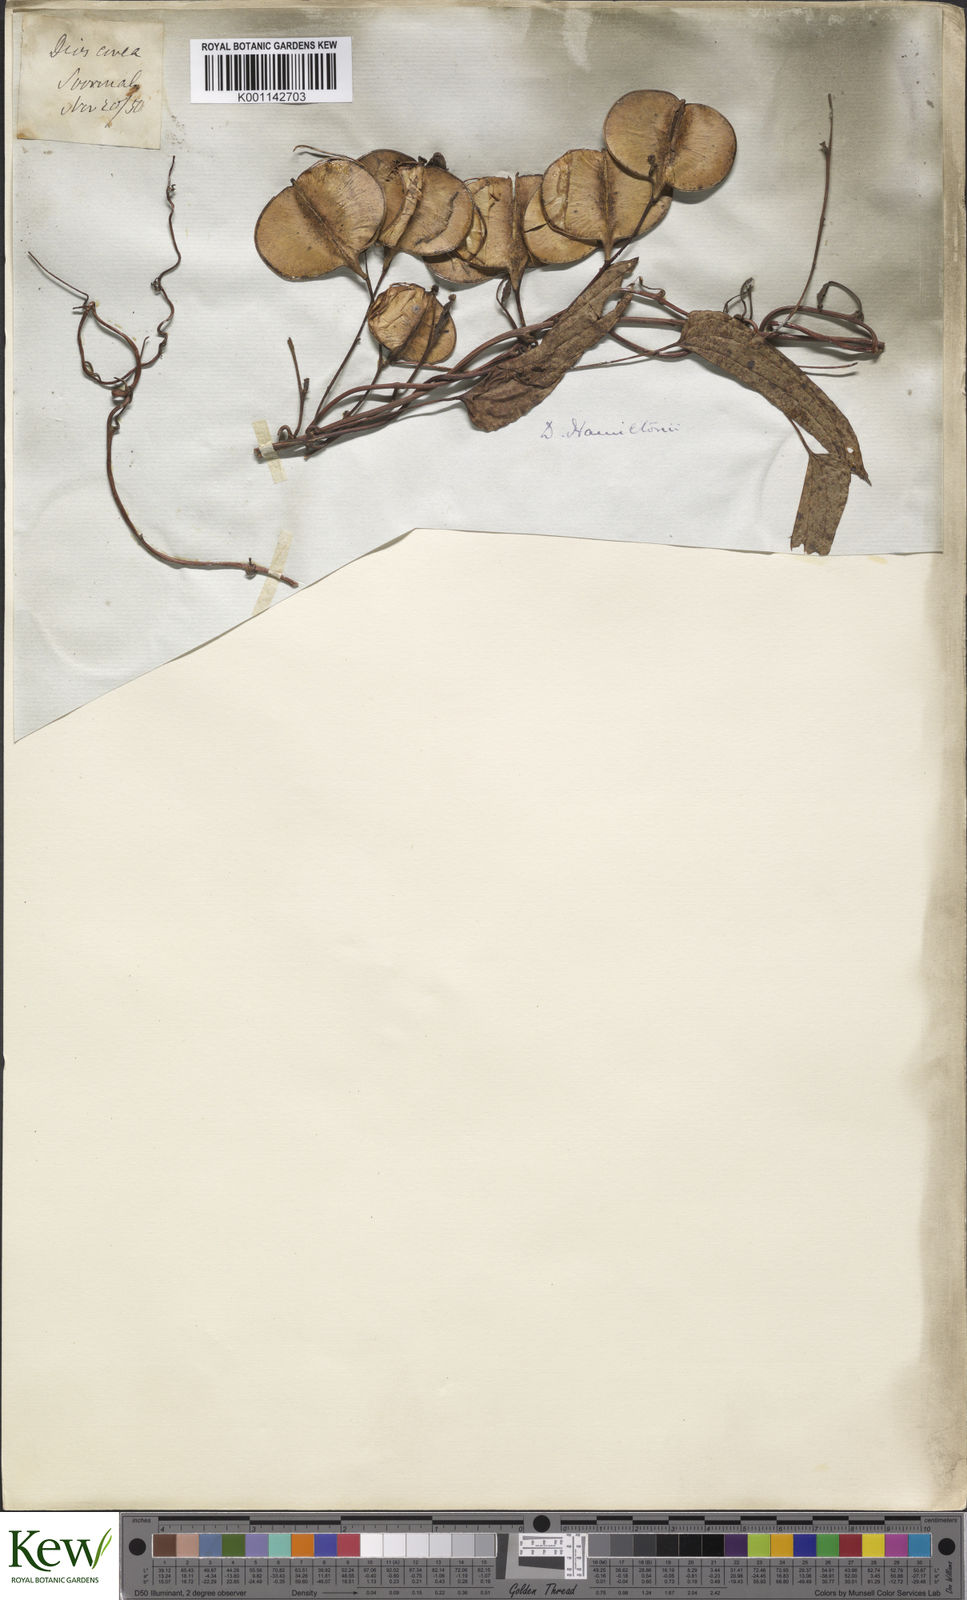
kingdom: Plantae
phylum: Tracheophyta
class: Liliopsida
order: Dioscoreales
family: Dioscoreaceae
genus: Dioscorea
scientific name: Dioscorea hamiltonii
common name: Mountain yam
